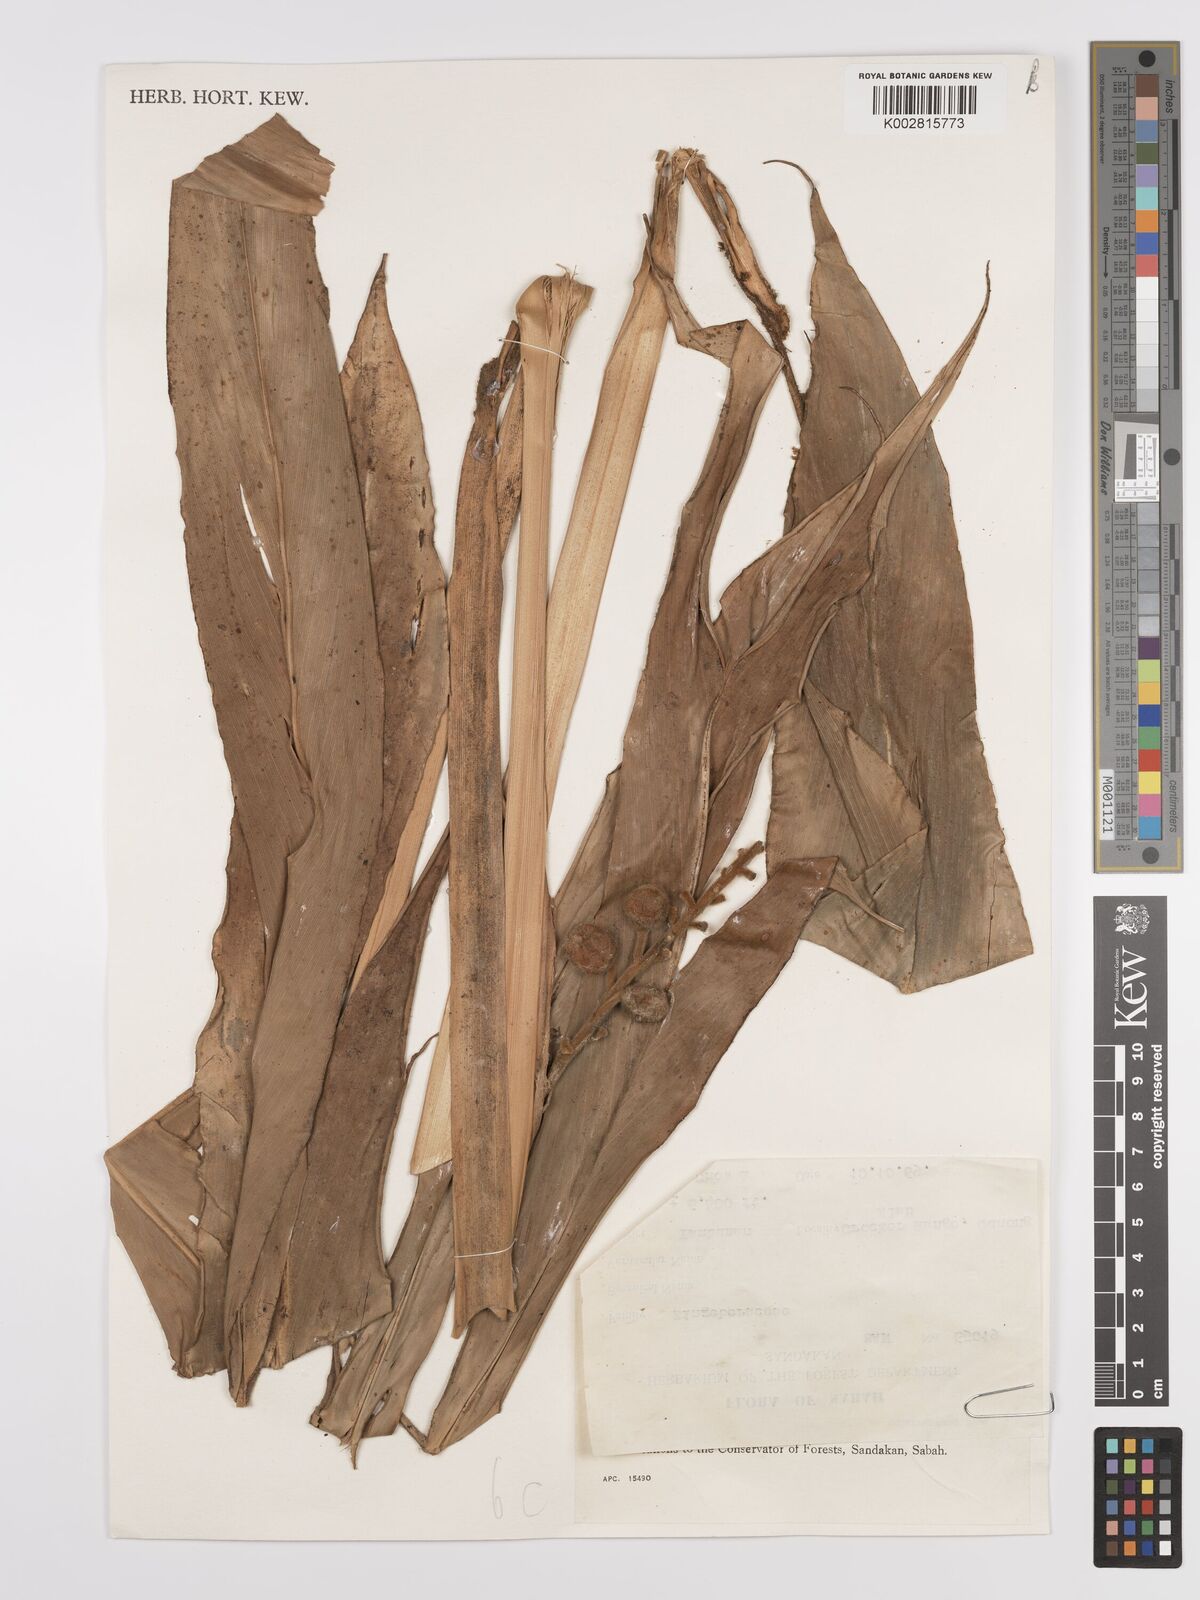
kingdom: Plantae
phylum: Tracheophyta
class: Liliopsida
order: Zingiberales
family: Zingiberaceae
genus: Alpinia
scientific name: Alpinia havilandii
